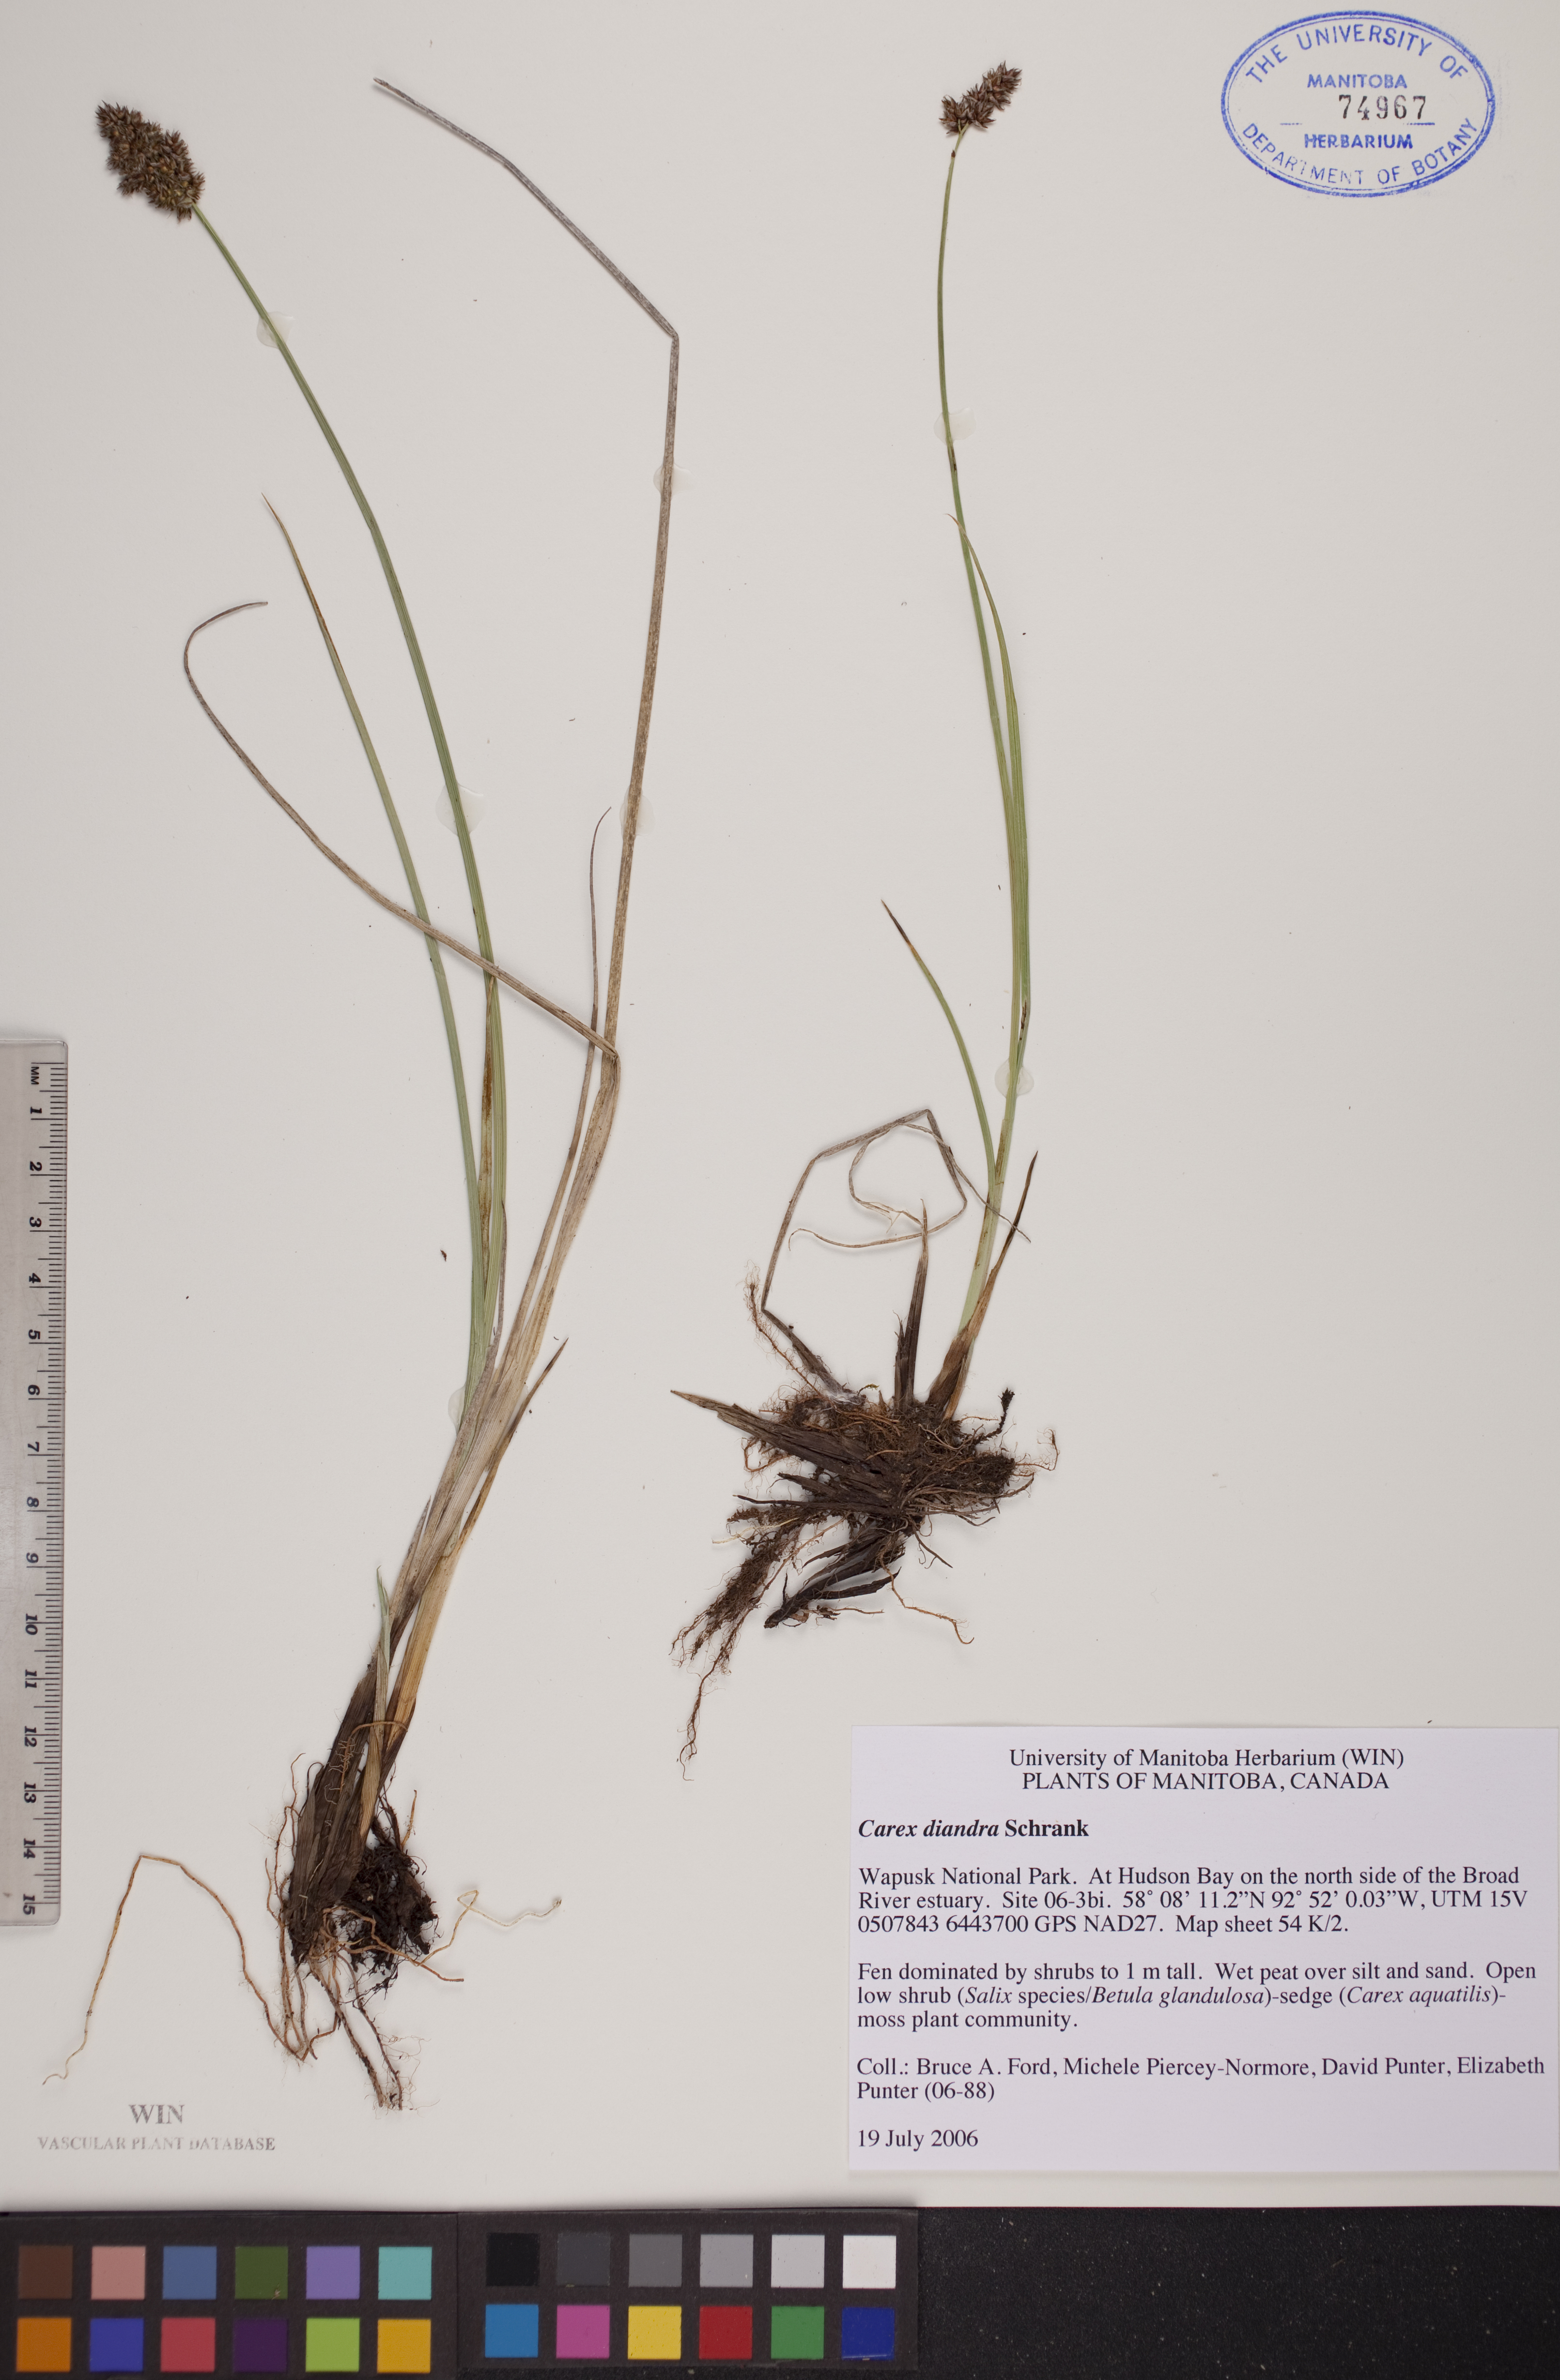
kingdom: Plantae
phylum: Tracheophyta
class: Liliopsida
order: Poales
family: Cyperaceae
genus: Carex
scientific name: Carex diandra
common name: Lesser tussock-sedge
